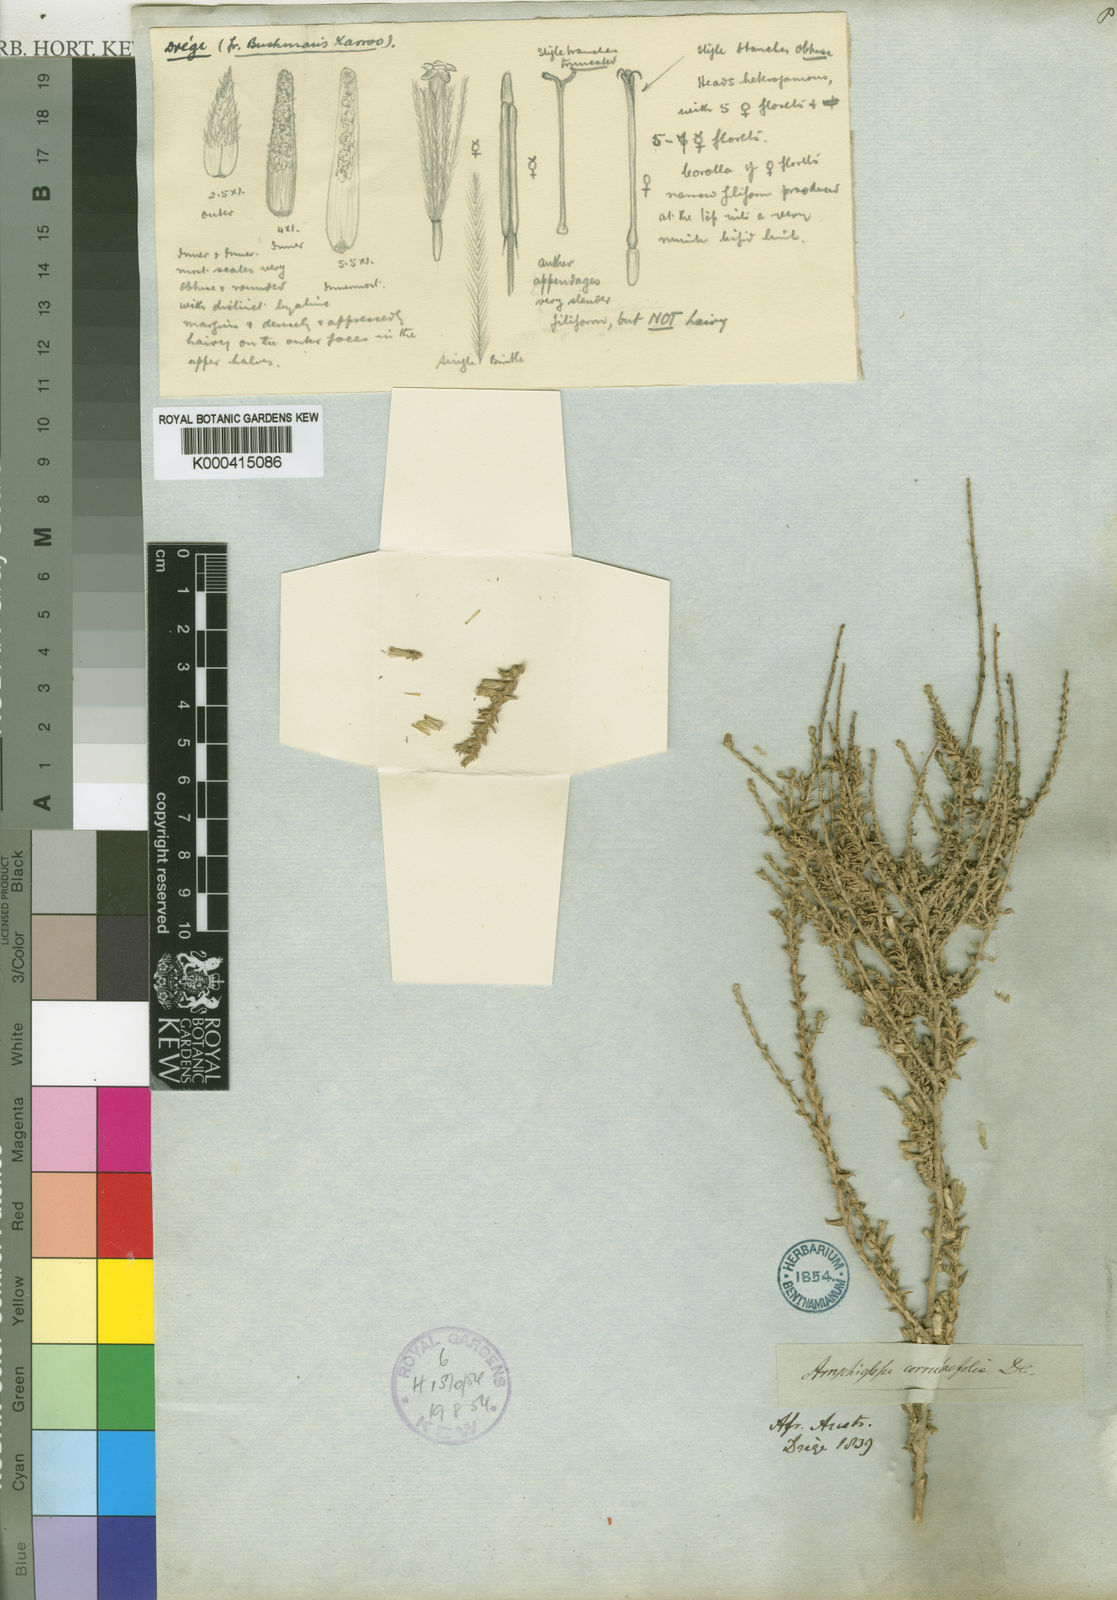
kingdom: Plantae
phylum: Tracheophyta
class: Magnoliopsida
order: Asterales
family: Asteraceae
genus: Amphiglossa
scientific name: Amphiglossa corrudaefolia
